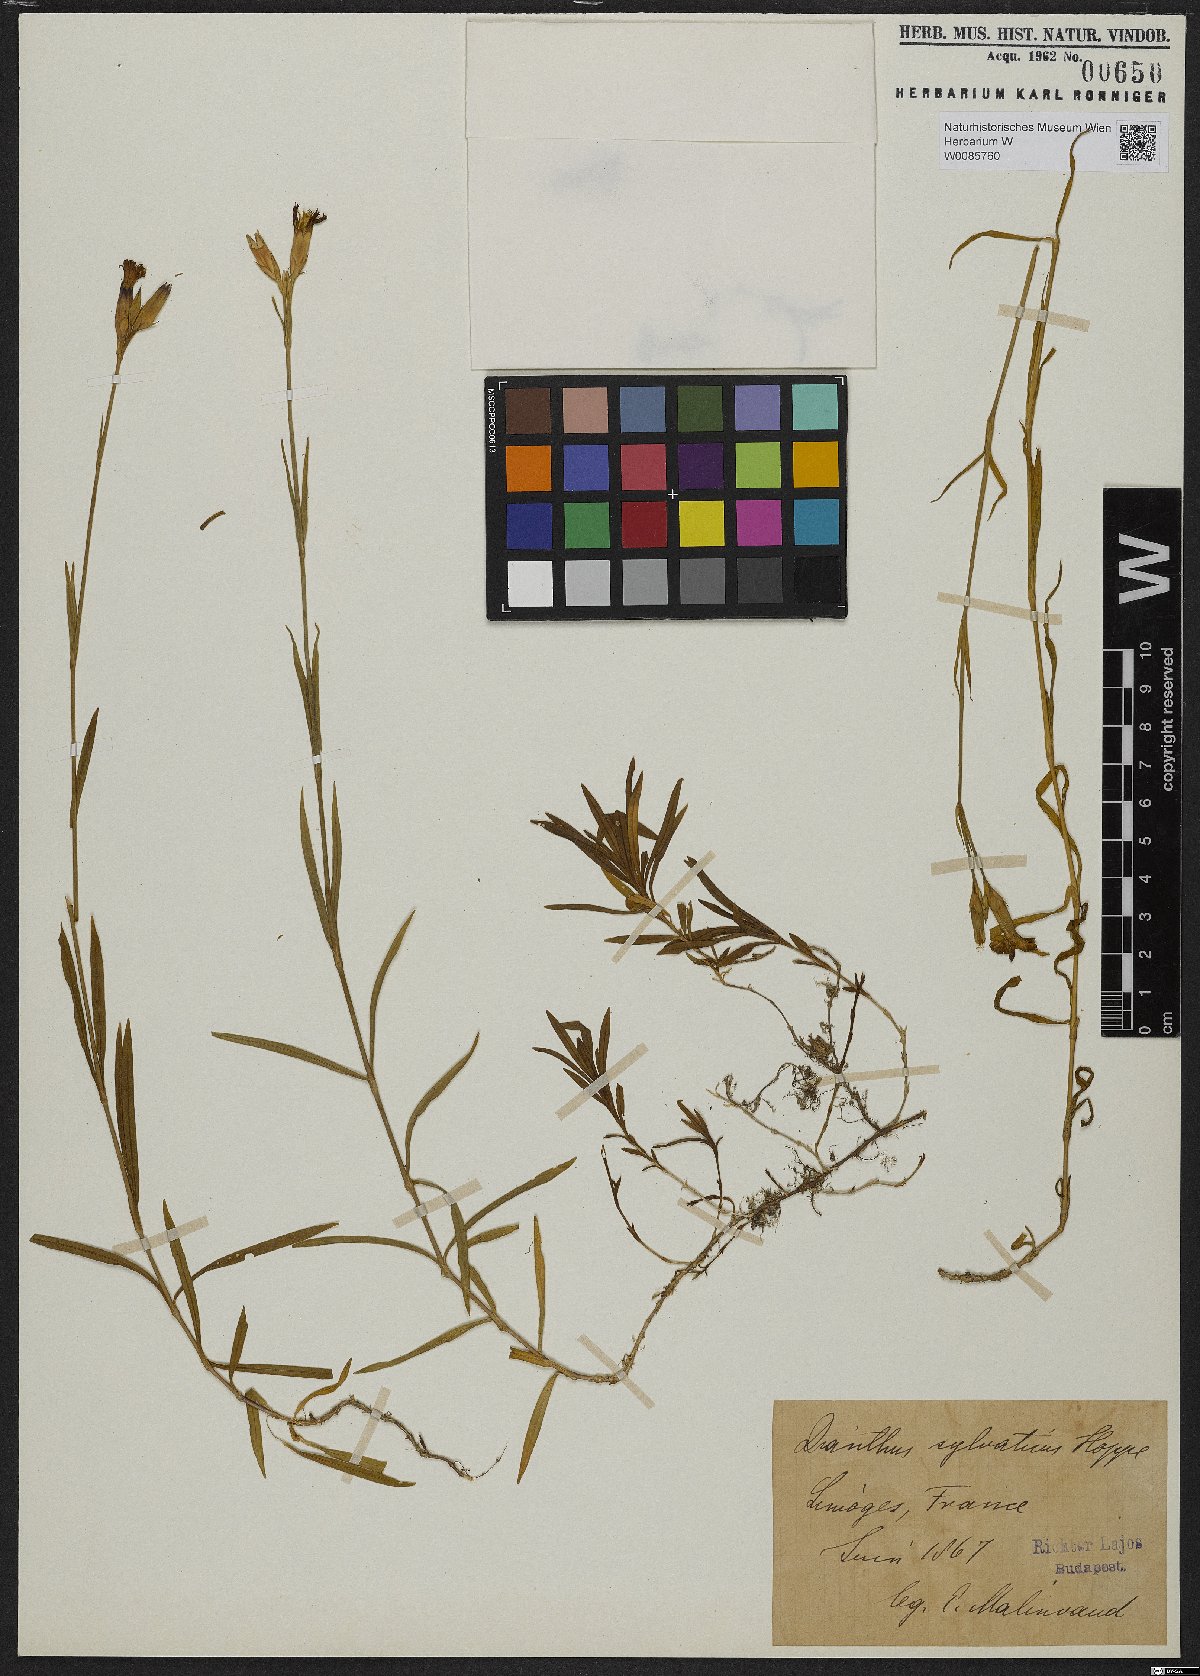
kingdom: Plantae
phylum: Tracheophyta
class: Magnoliopsida
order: Caryophyllales
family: Caryophyllaceae
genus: Dianthus
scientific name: Dianthus seguieri
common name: Ragged pink
